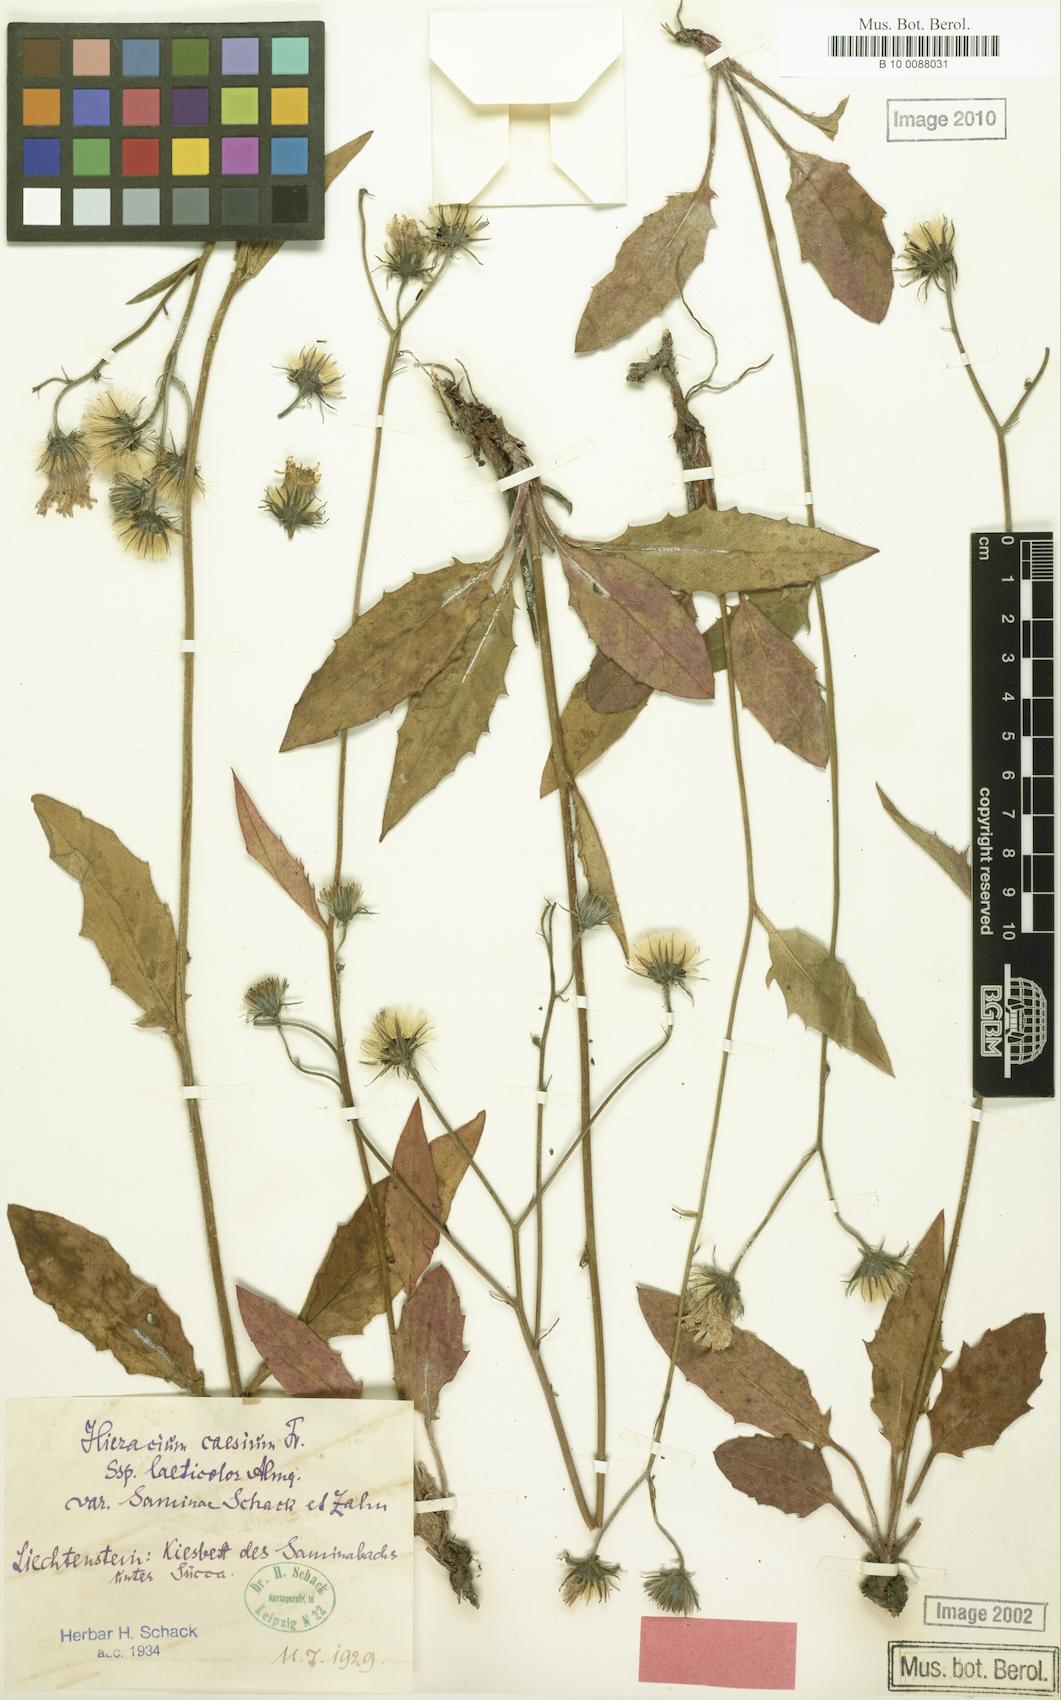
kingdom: Plantae
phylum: Tracheophyta
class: Magnoliopsida
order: Asterales
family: Asteraceae
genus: Hieracium
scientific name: Hieracium caesium
